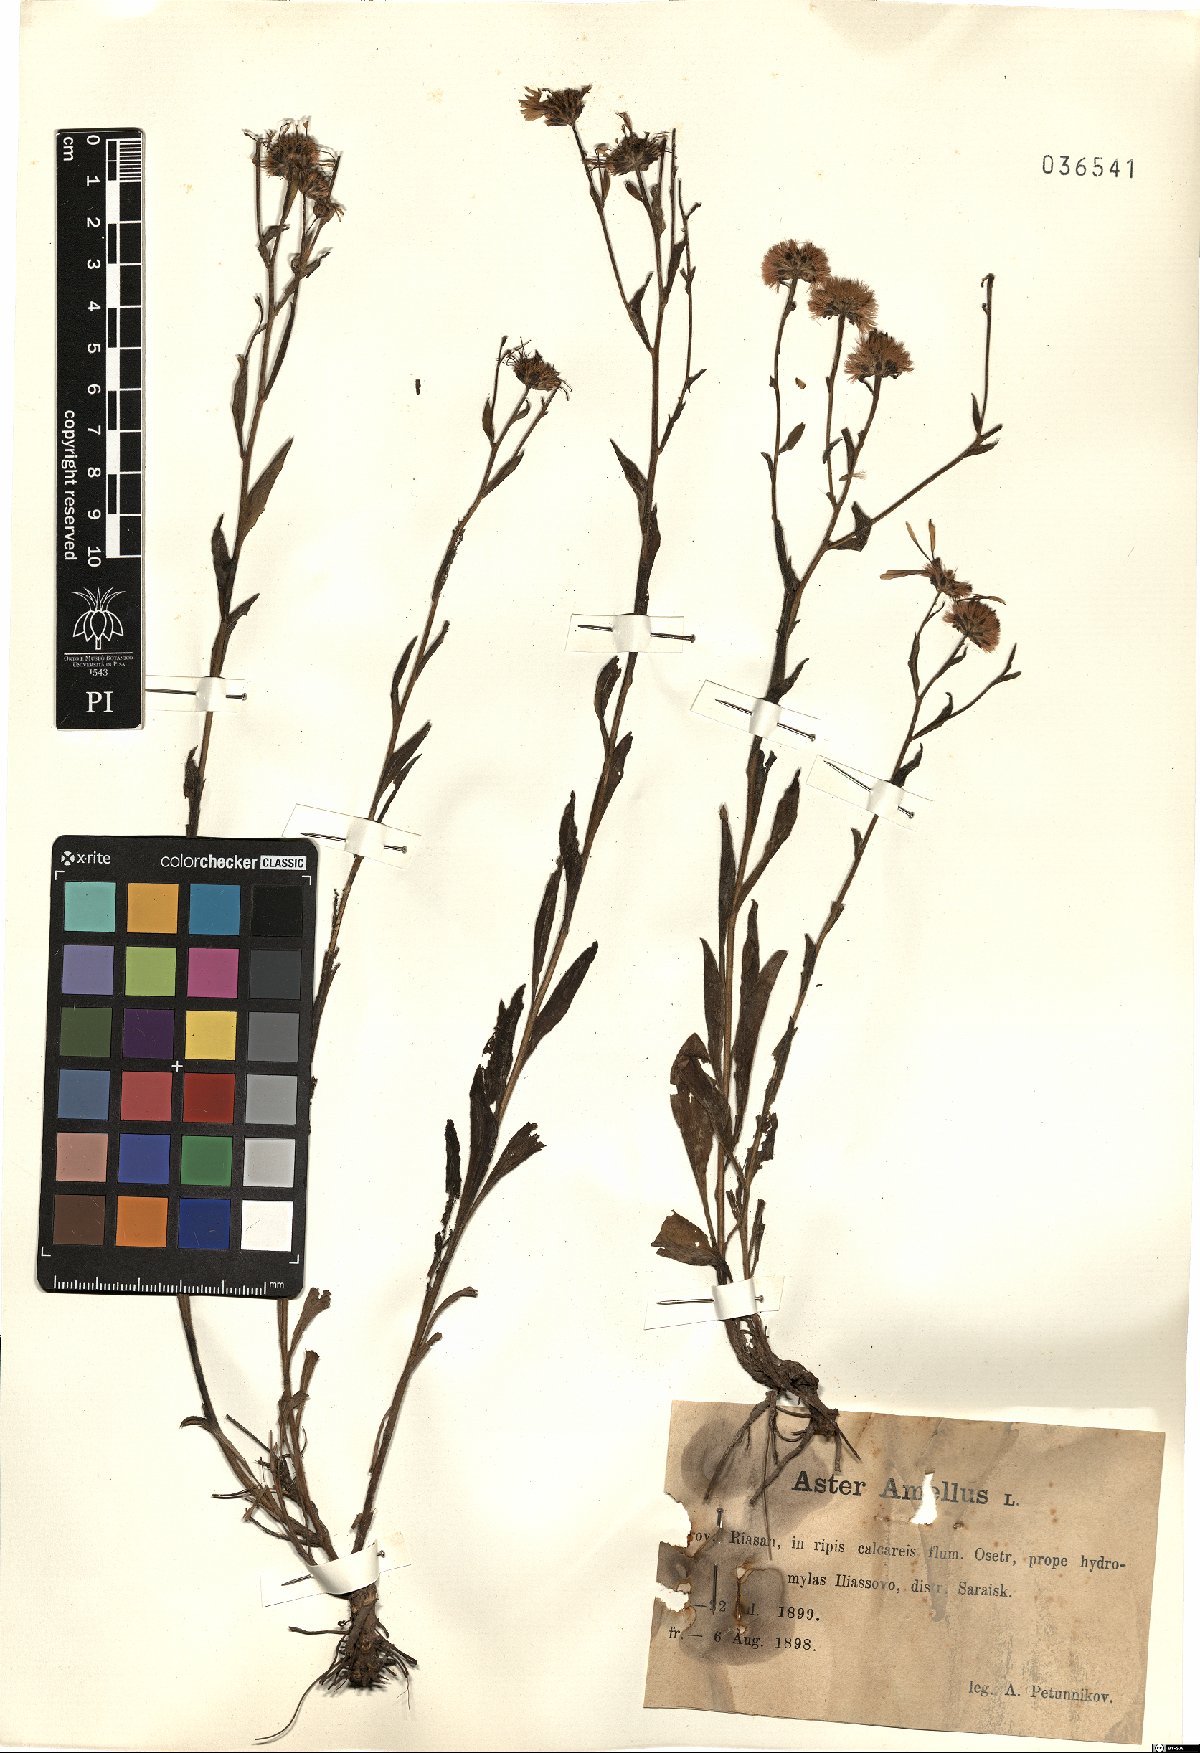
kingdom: Plantae
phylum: Tracheophyta
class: Magnoliopsida
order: Asterales
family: Asteraceae
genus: Aster
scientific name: Aster amellus
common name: European michaelmas daisy
